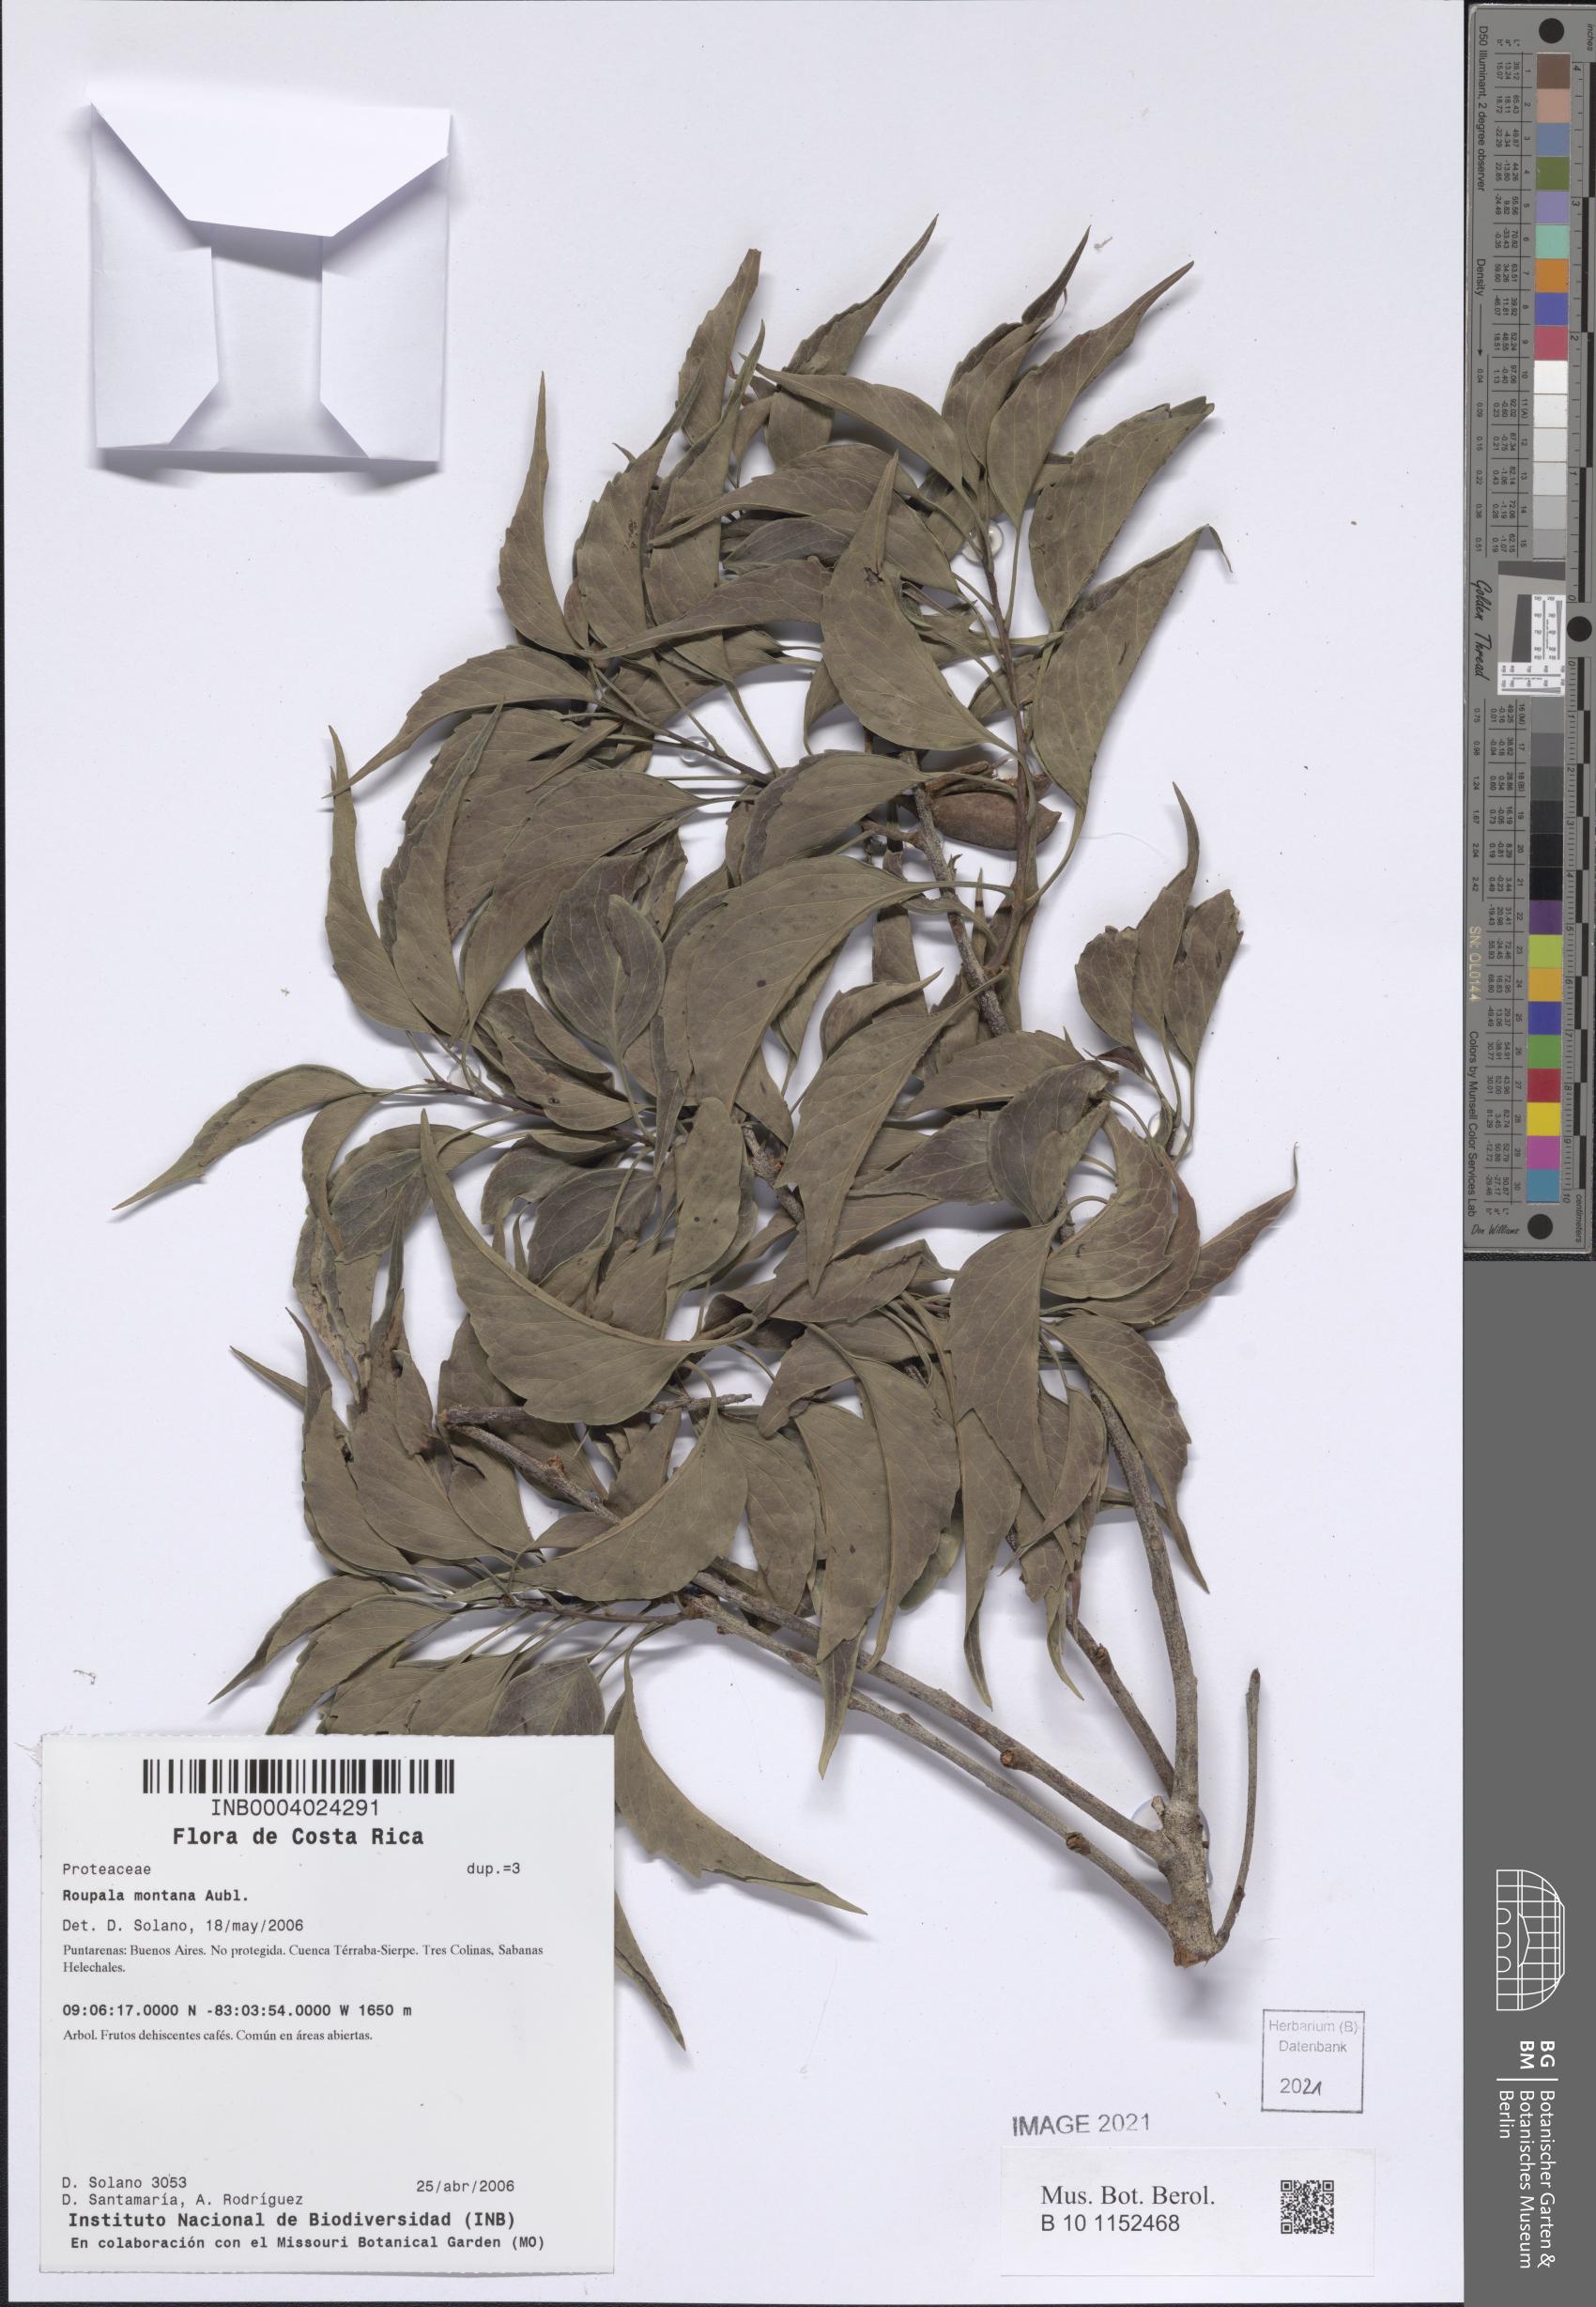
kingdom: Plantae
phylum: Tracheophyta
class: Magnoliopsida
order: Proteales
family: Proteaceae
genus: Roupala
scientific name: Roupala montana
